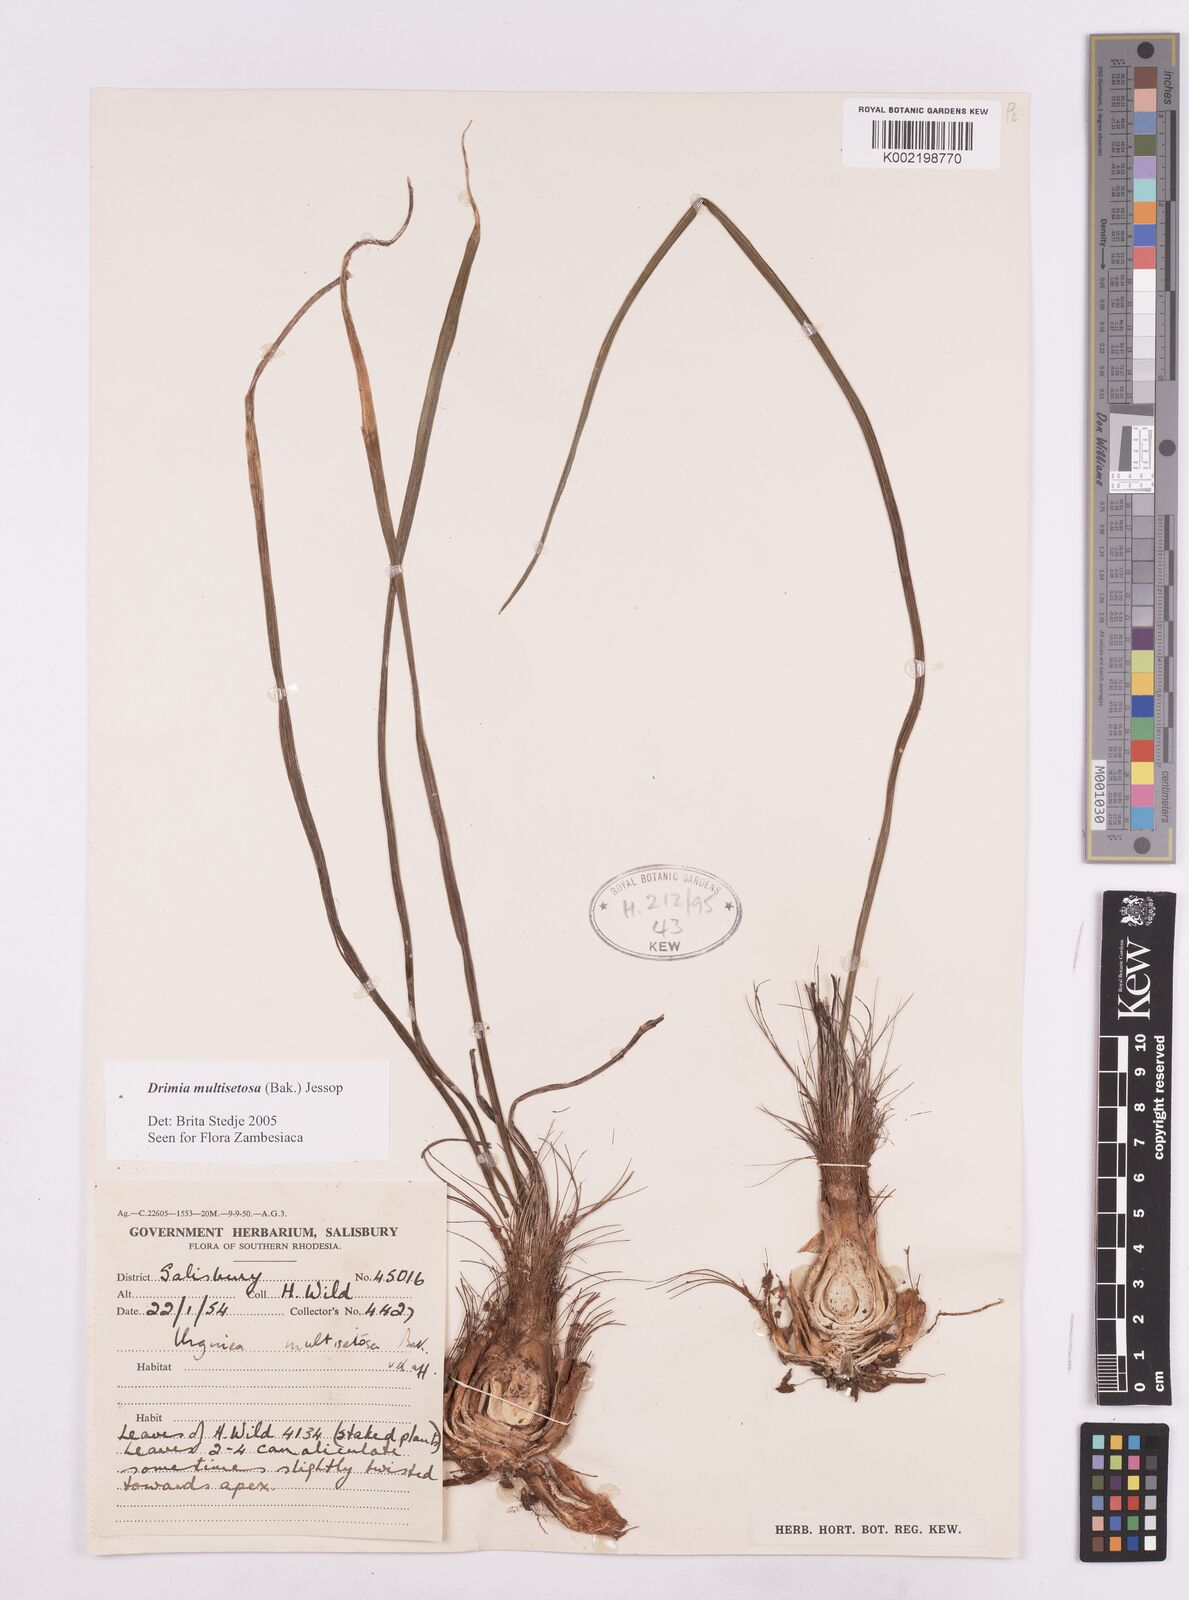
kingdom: Plantae
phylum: Tracheophyta
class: Liliopsida
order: Asparagales
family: Asparagaceae
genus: Drimia
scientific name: Drimia multisetosa
